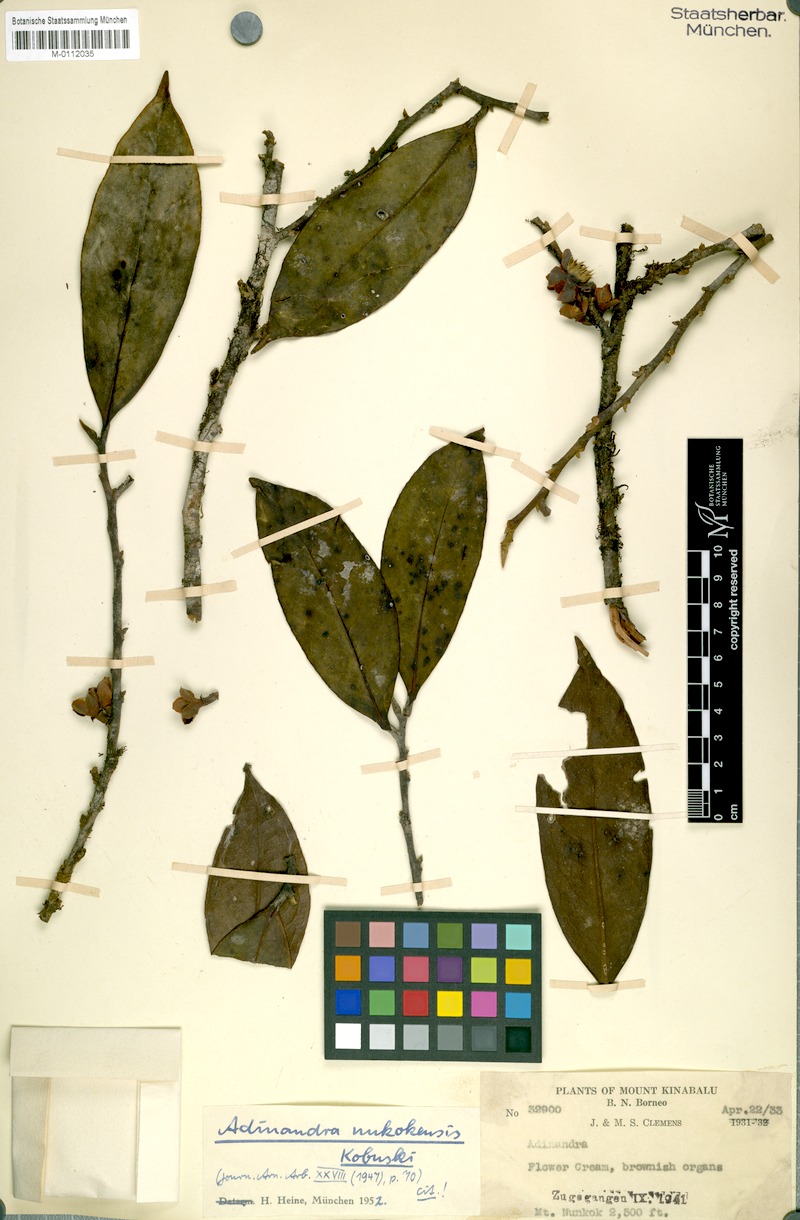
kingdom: Plantae
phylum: Tracheophyta
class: Magnoliopsida
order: Ericales
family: Pentaphylacaceae
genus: Adinandra
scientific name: Adinandra nunkokensis
